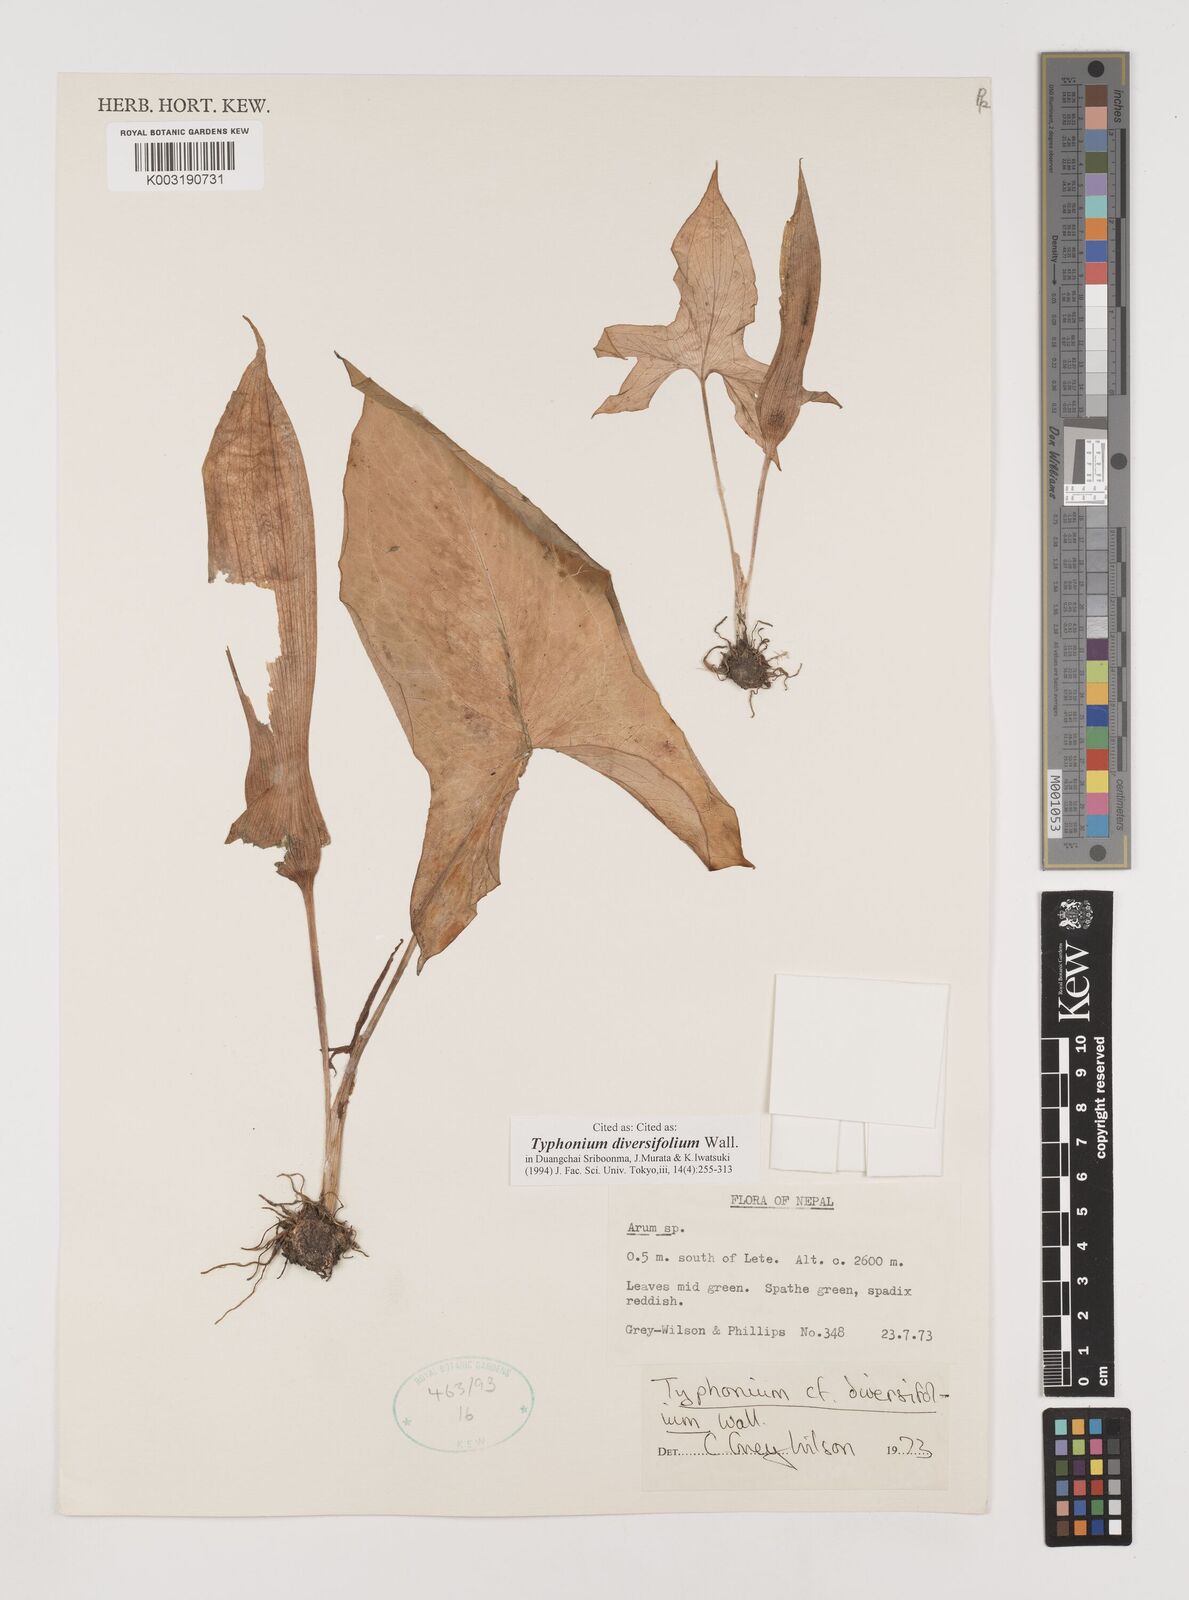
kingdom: Plantae
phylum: Tracheophyta
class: Liliopsida
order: Alismatales
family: Araceae
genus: Sauromatum
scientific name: Sauromatum diversifolium
